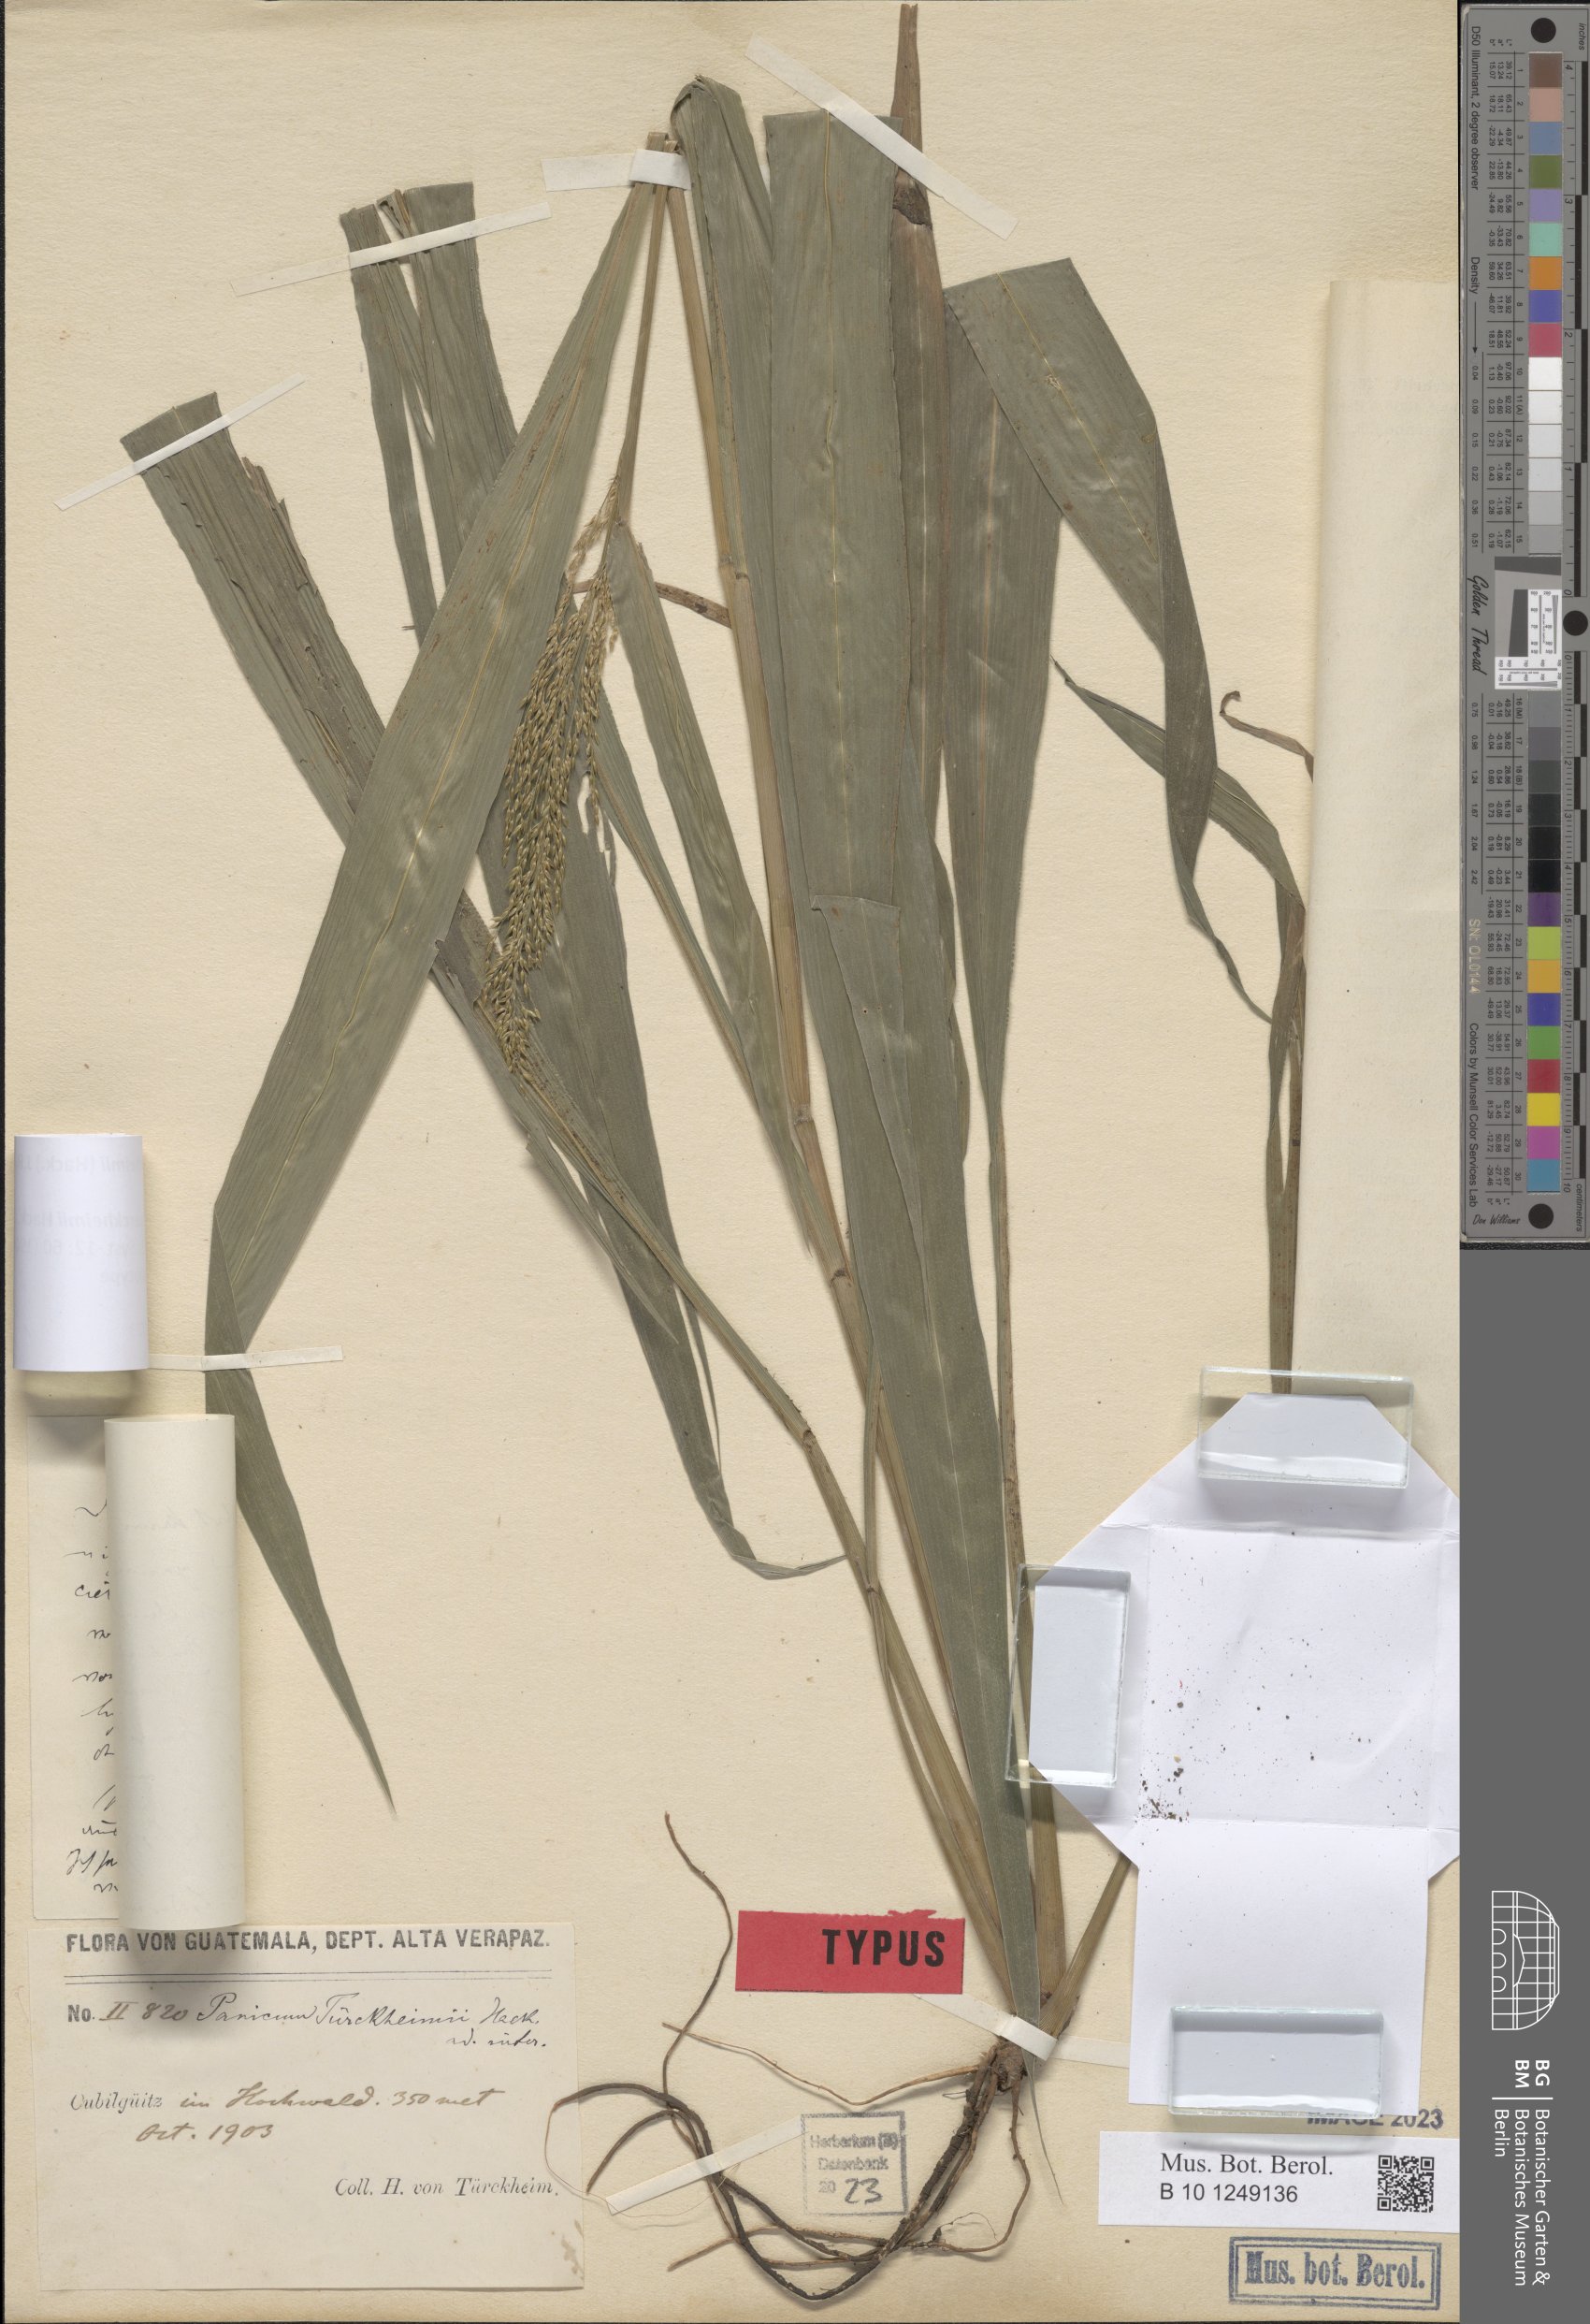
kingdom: Plantae
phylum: Tracheophyta
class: Liliopsida
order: Poales
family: Poaceae
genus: Aakia
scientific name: Aakia tuerckheimii
